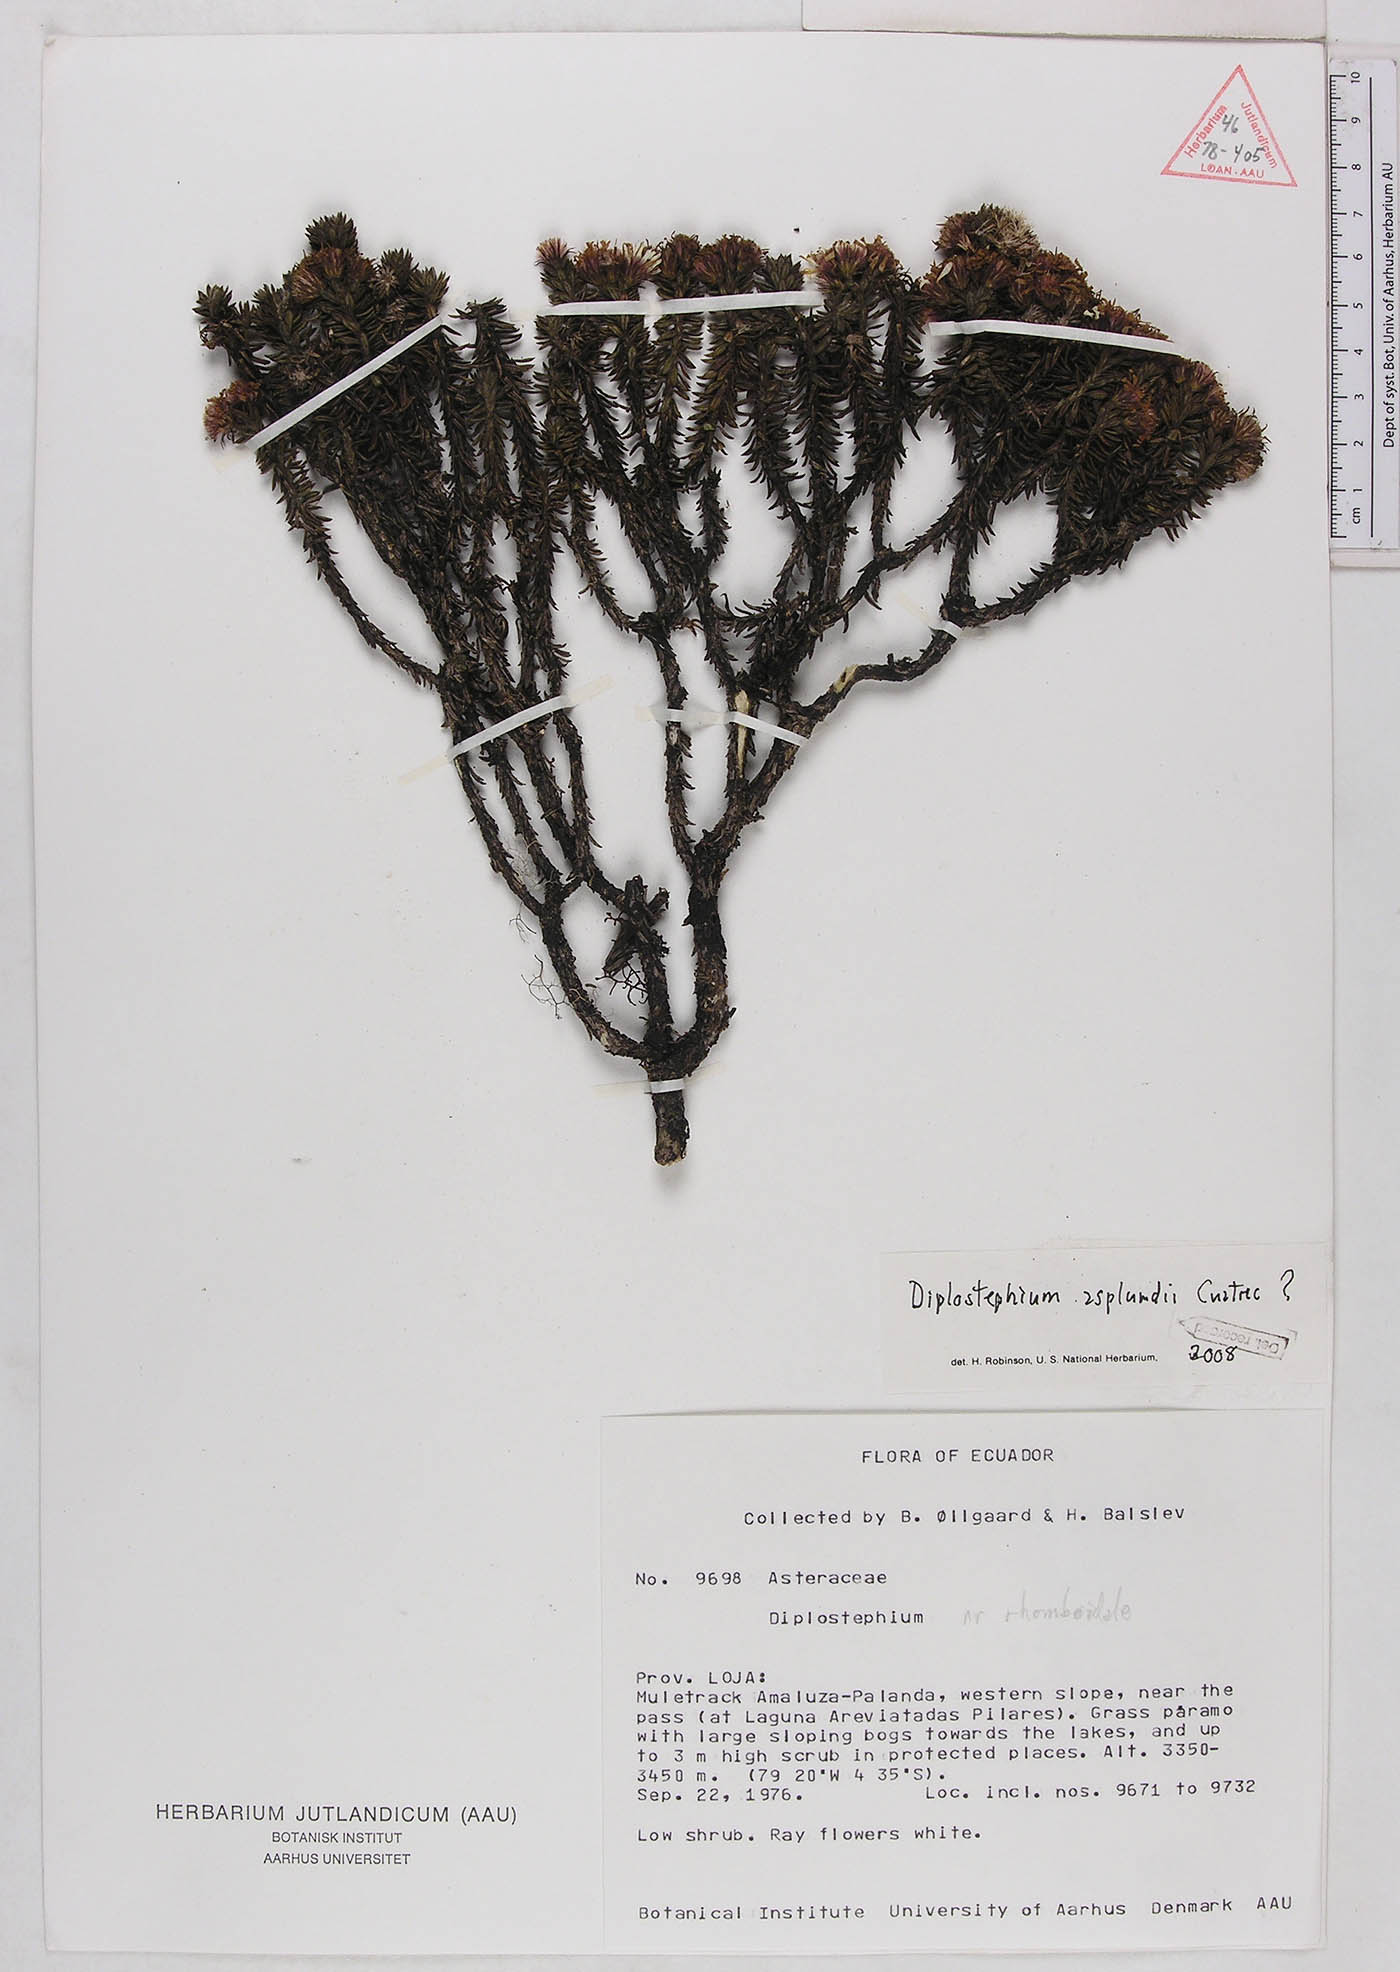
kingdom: Plantae
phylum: Tracheophyta
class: Magnoliopsida
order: Asterales
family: Asteraceae
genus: Diplostephium
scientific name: Diplostephium asplundii
